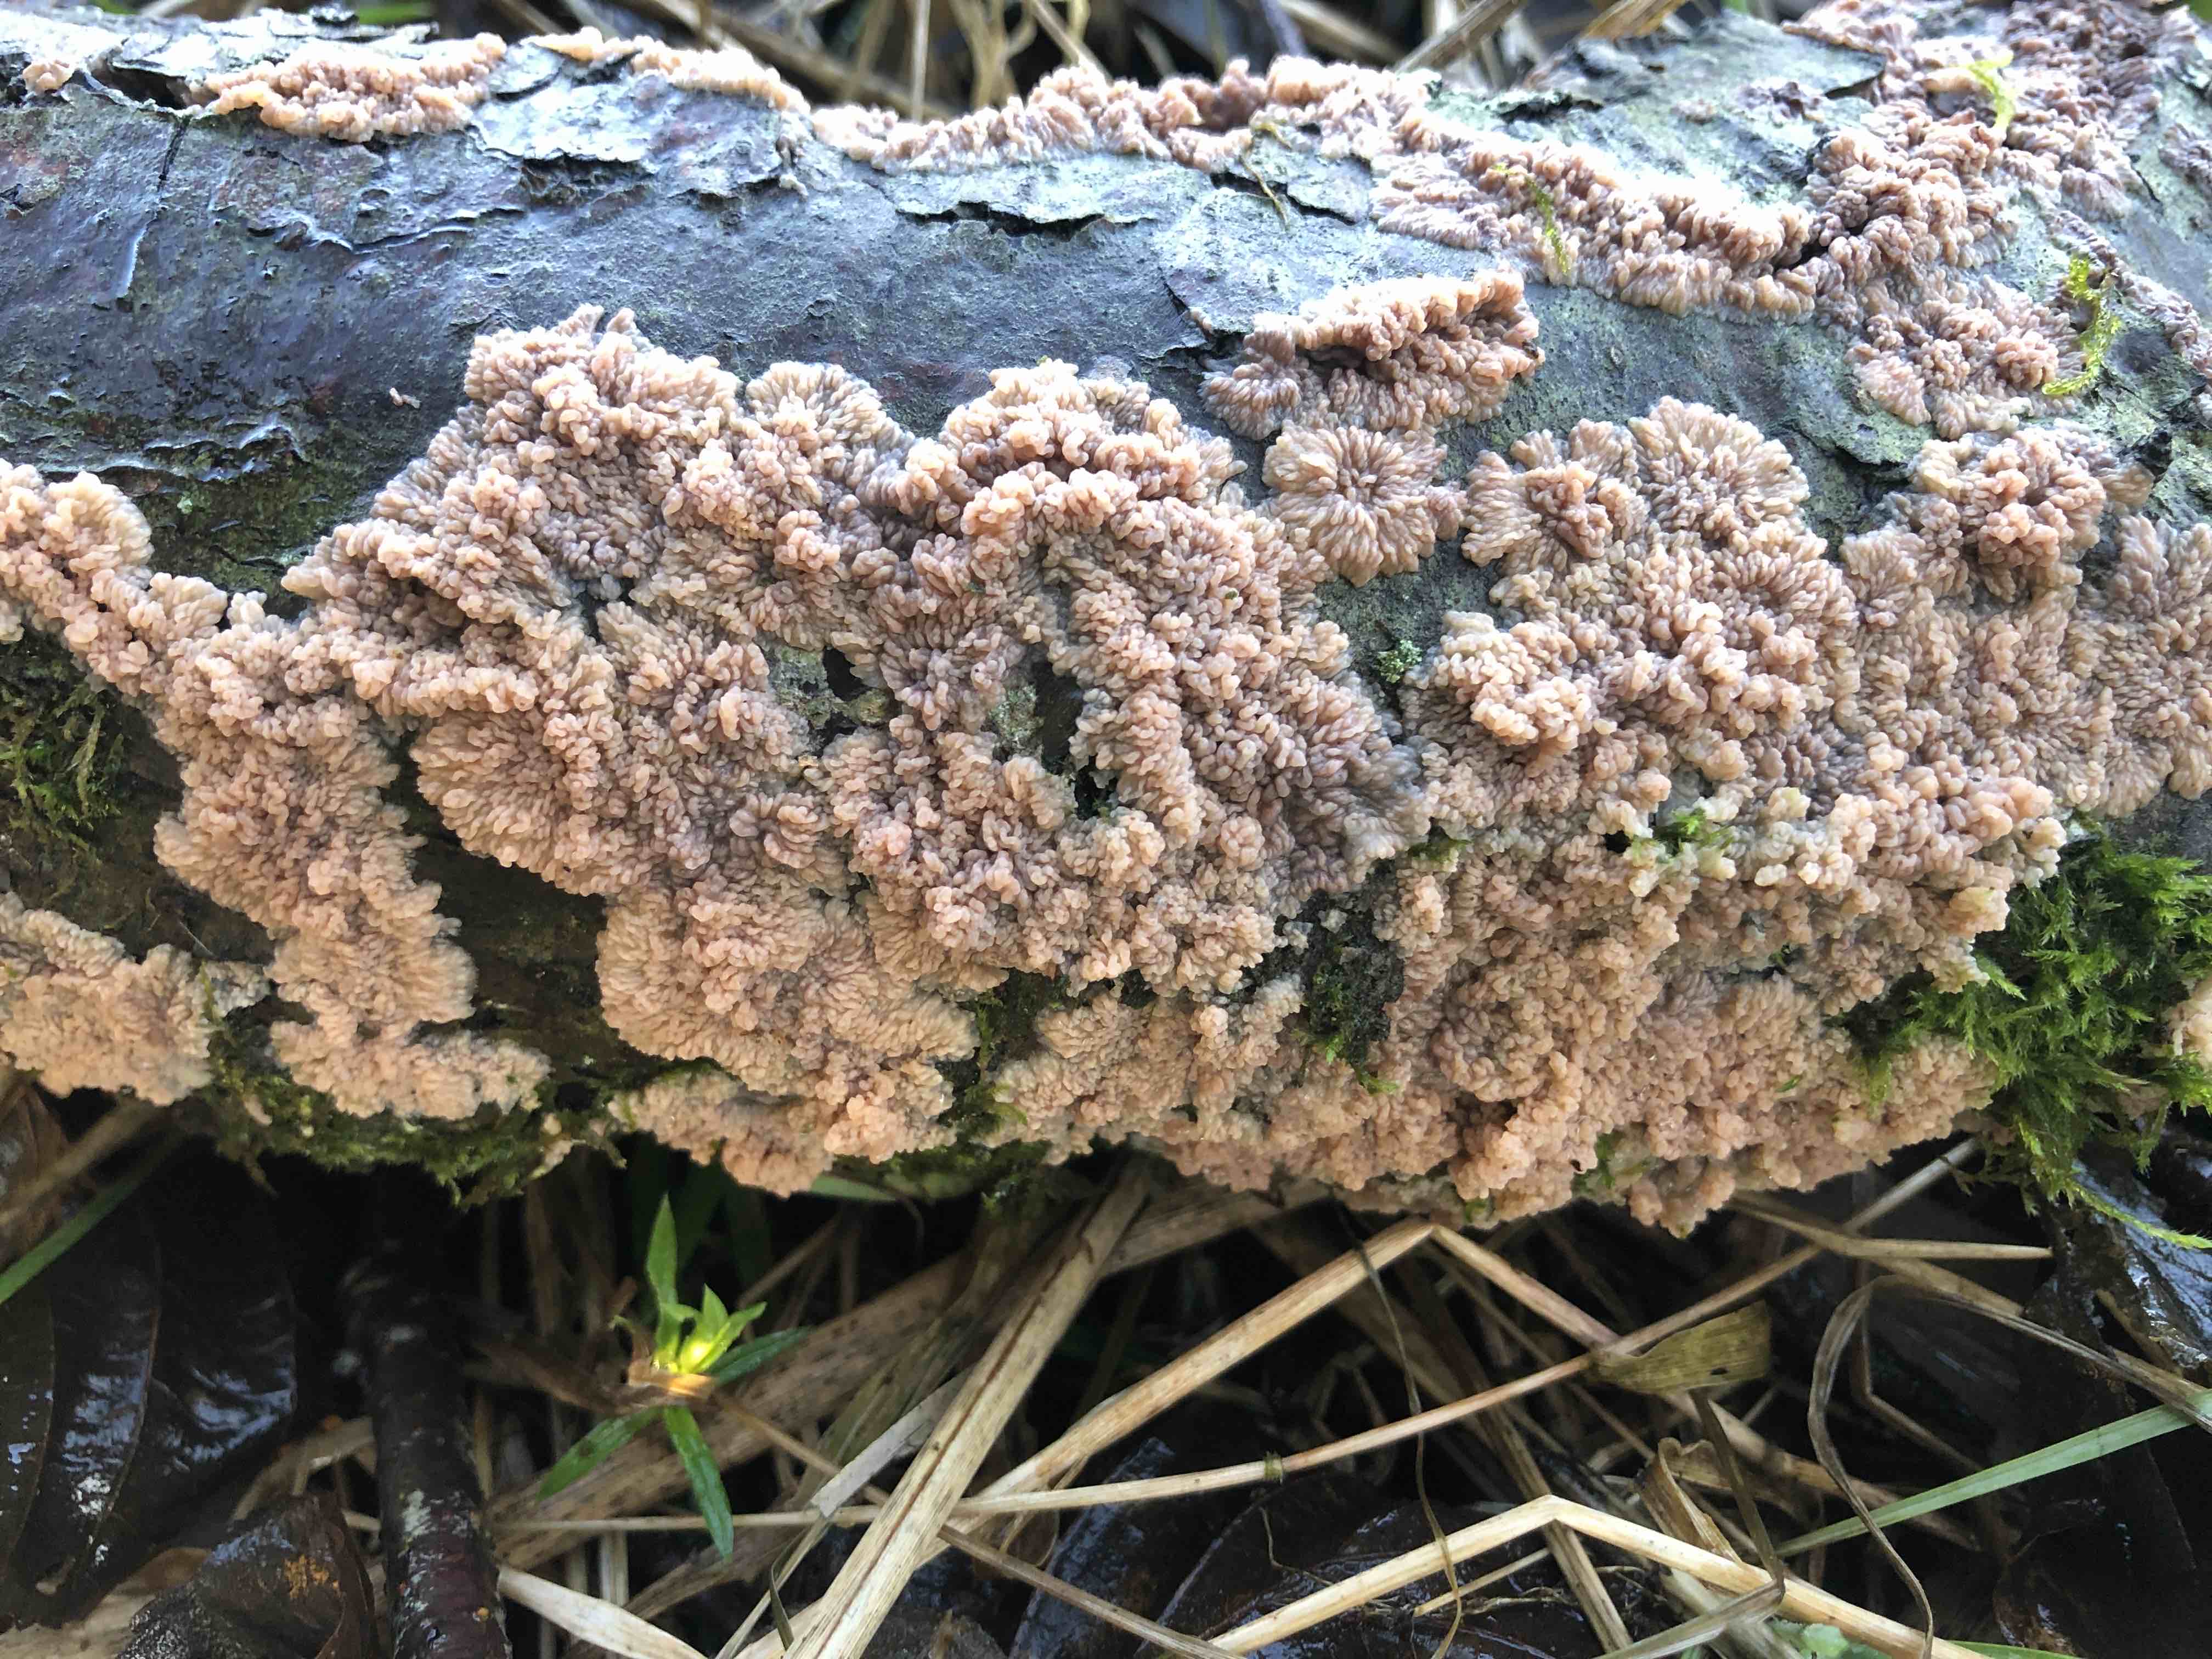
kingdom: Fungi
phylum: Basidiomycota
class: Agaricomycetes
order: Polyporales
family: Meruliaceae
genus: Phlebia
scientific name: Phlebia radiata
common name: stråle-åresvamp
